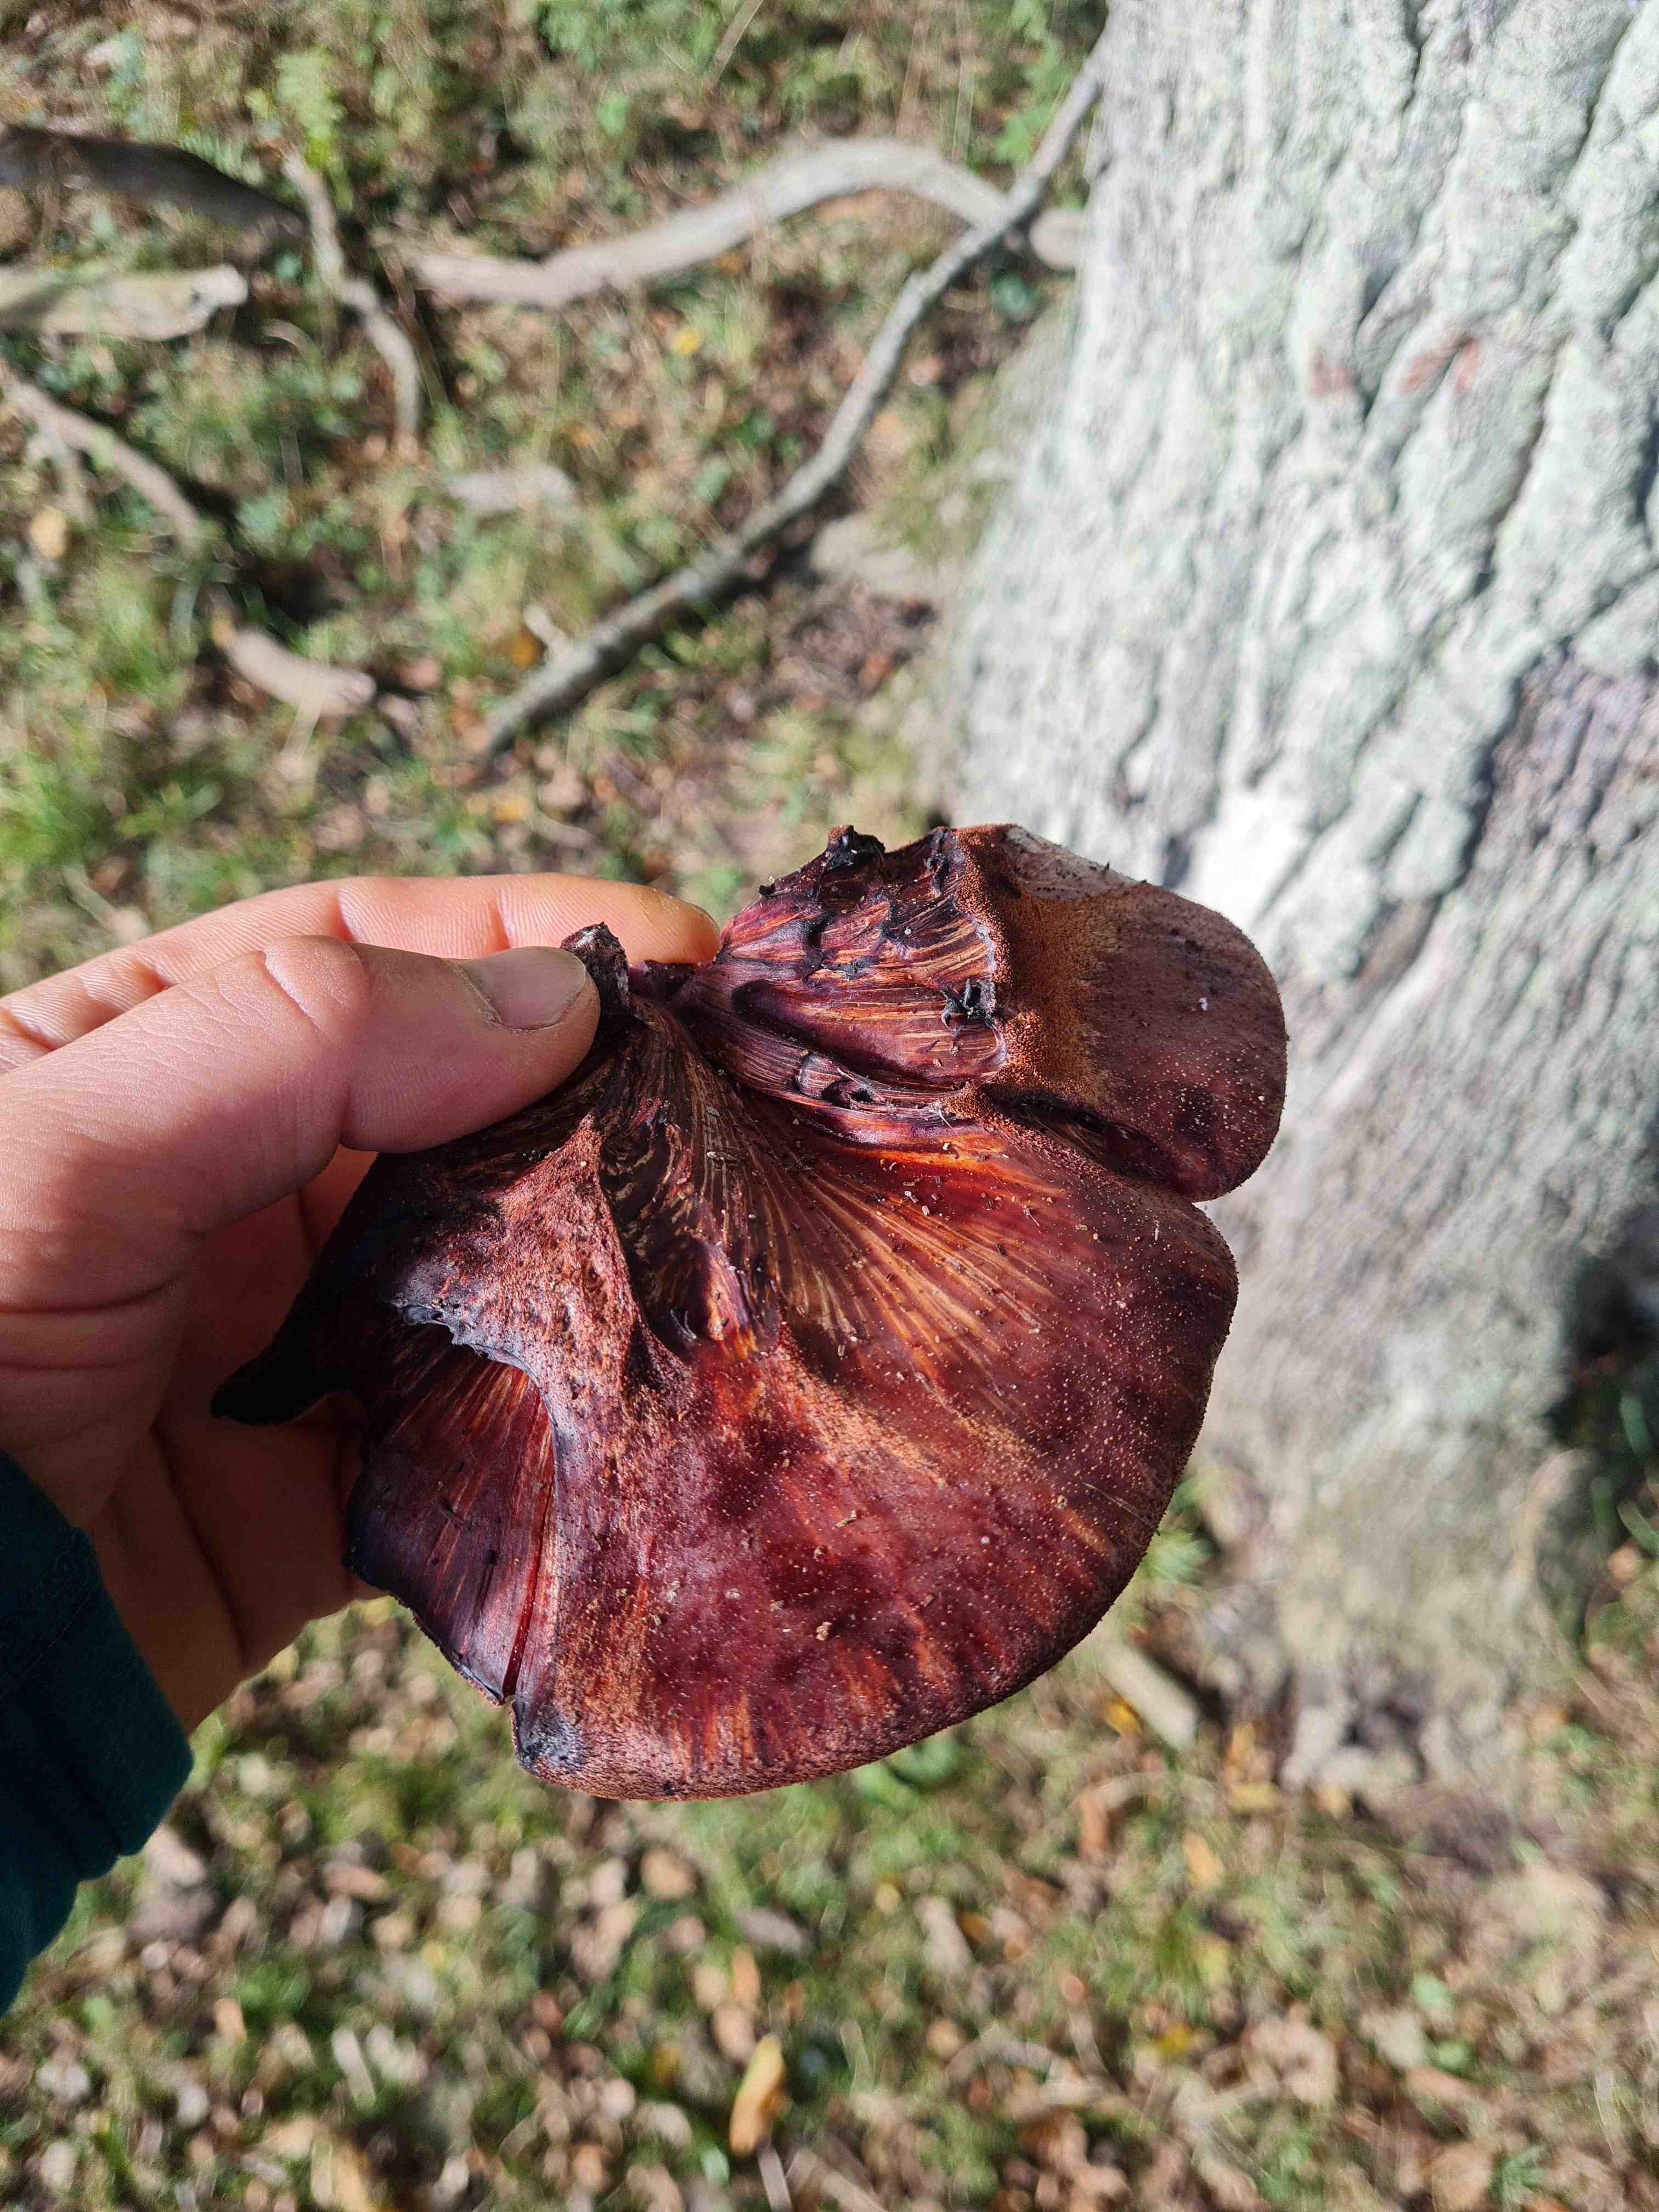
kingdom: Fungi
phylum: Basidiomycota
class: Agaricomycetes
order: Agaricales
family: Fistulinaceae
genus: Fistulina
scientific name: Fistulina hepatica
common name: oksetunge
